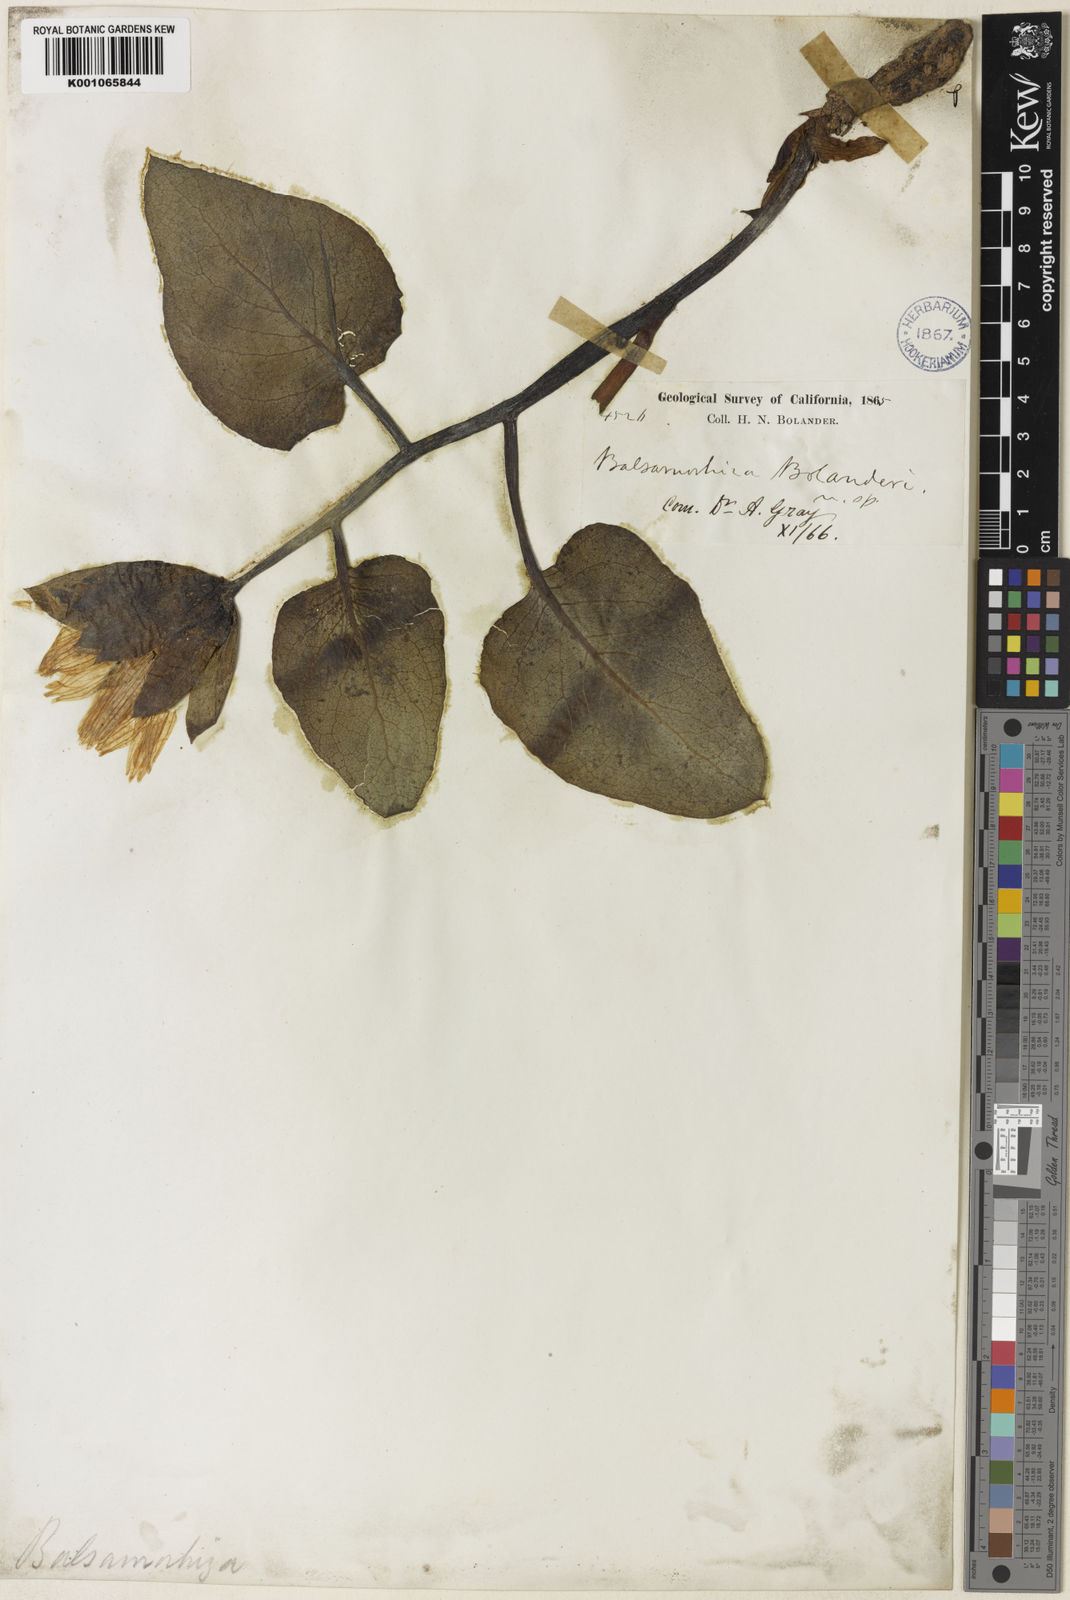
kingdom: Plantae
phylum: Tracheophyta
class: Magnoliopsida
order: Asterales
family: Asteraceae
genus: Agnorhiza
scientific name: Agnorhiza bolanderi
